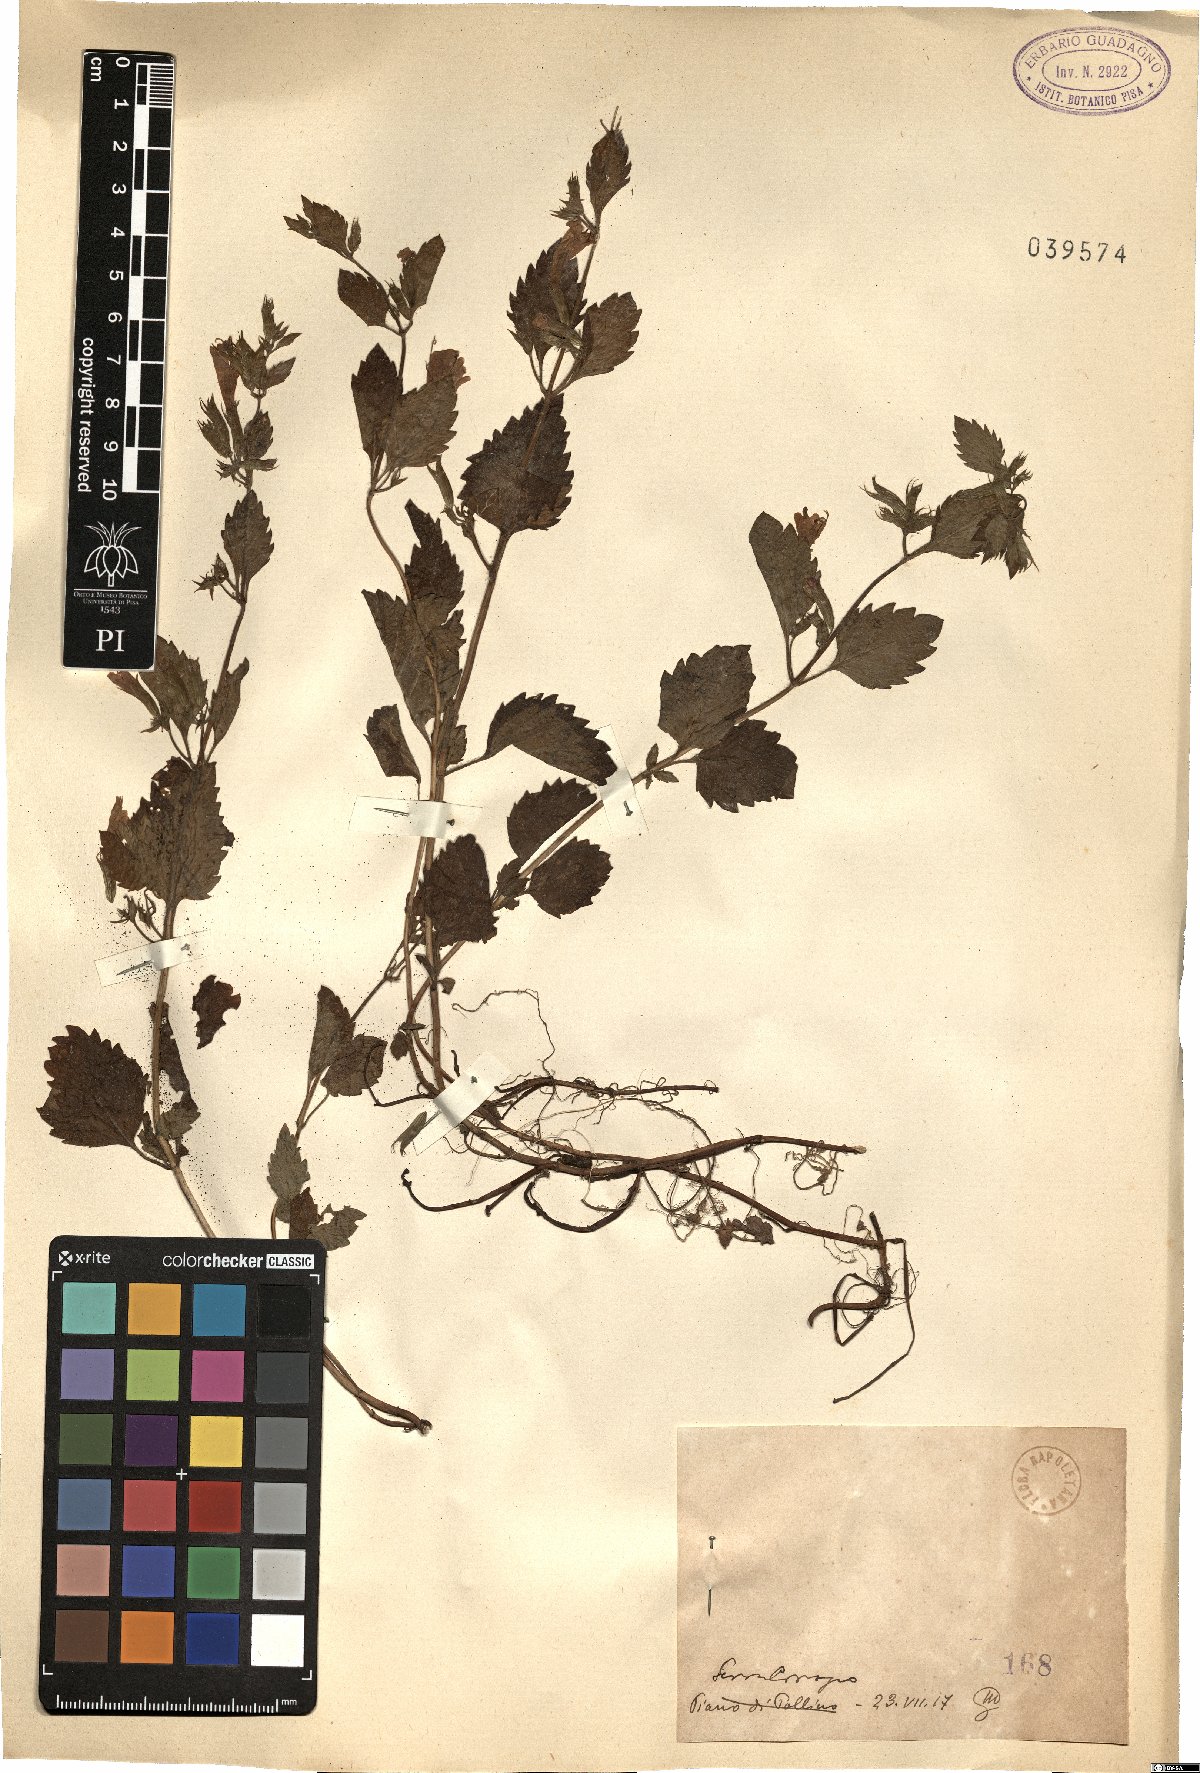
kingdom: Plantae
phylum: Tracheophyta
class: Magnoliopsida
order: Lamiales
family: Lamiaceae
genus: Micromeria
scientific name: Micromeria
